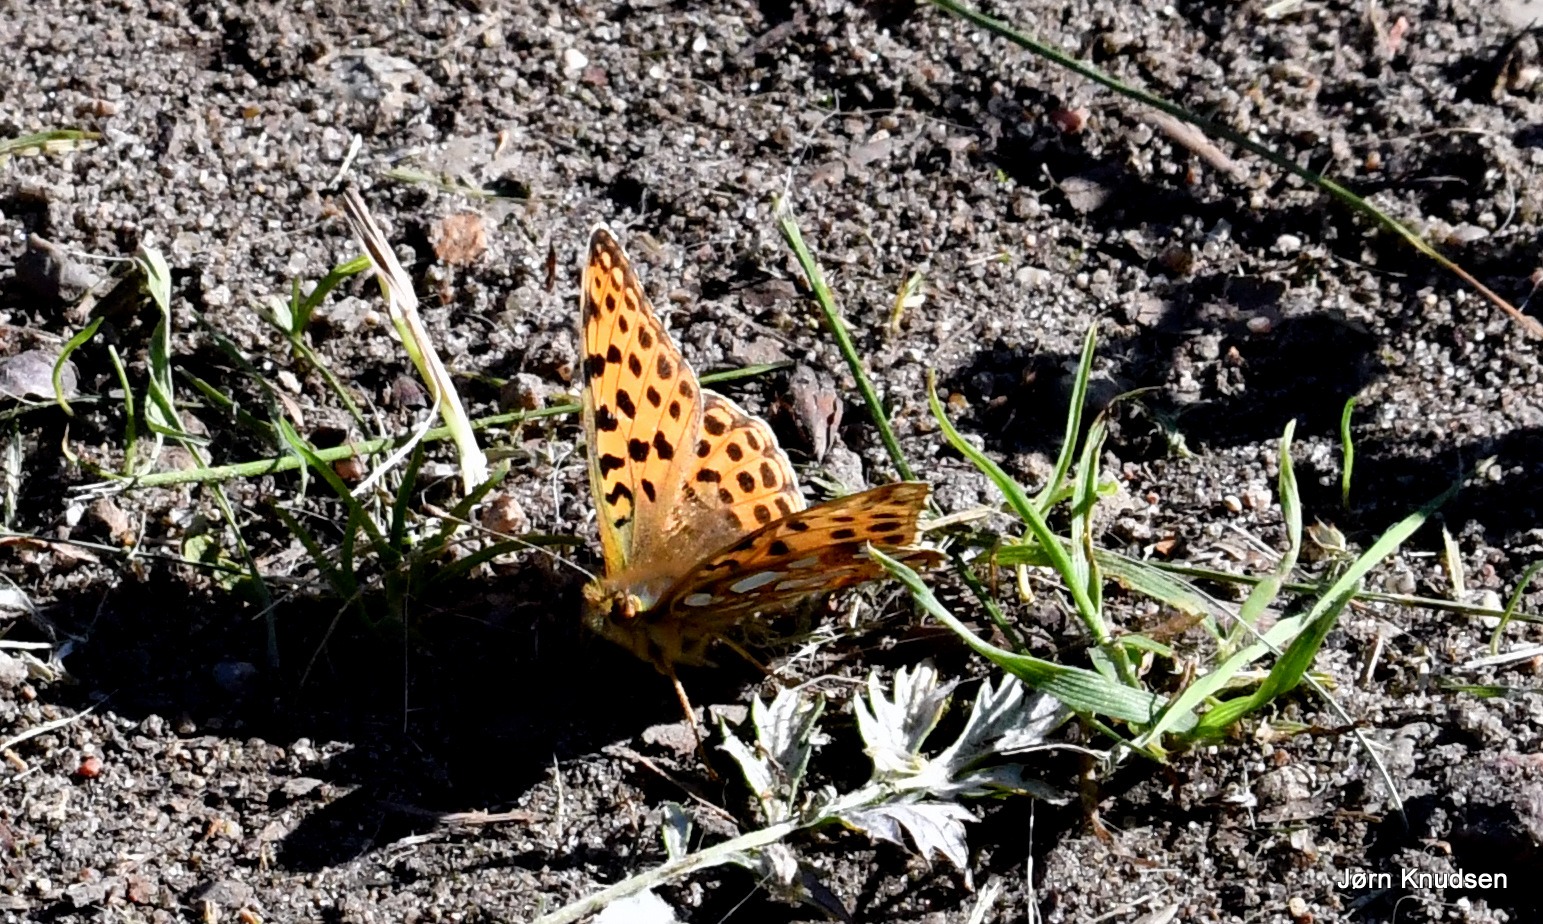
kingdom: Animalia
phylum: Arthropoda
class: Insecta
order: Lepidoptera
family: Nymphalidae
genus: Issoria
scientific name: Issoria lathonia
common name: Storplettet perlemorsommerfugl
